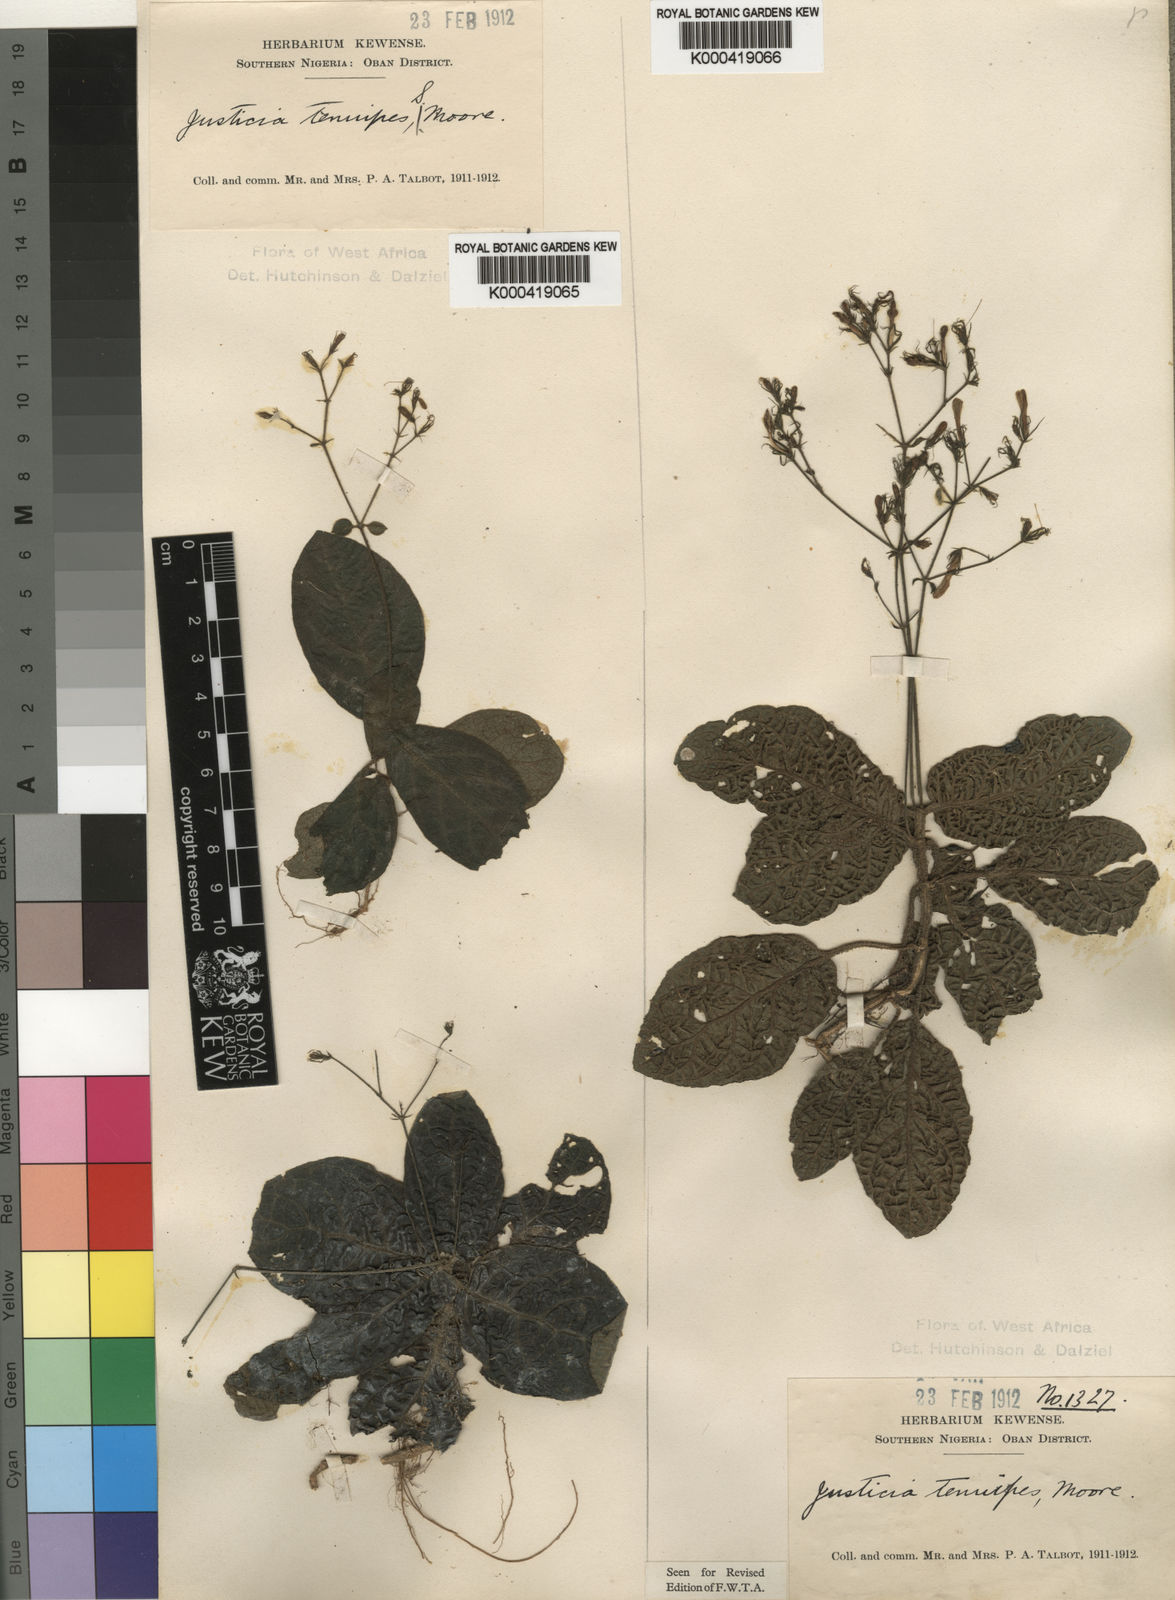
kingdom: Plantae
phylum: Tracheophyta
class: Magnoliopsida
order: Lamiales
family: Acanthaceae
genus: Rhinacanthus
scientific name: Rhinacanthus obtusifolius
